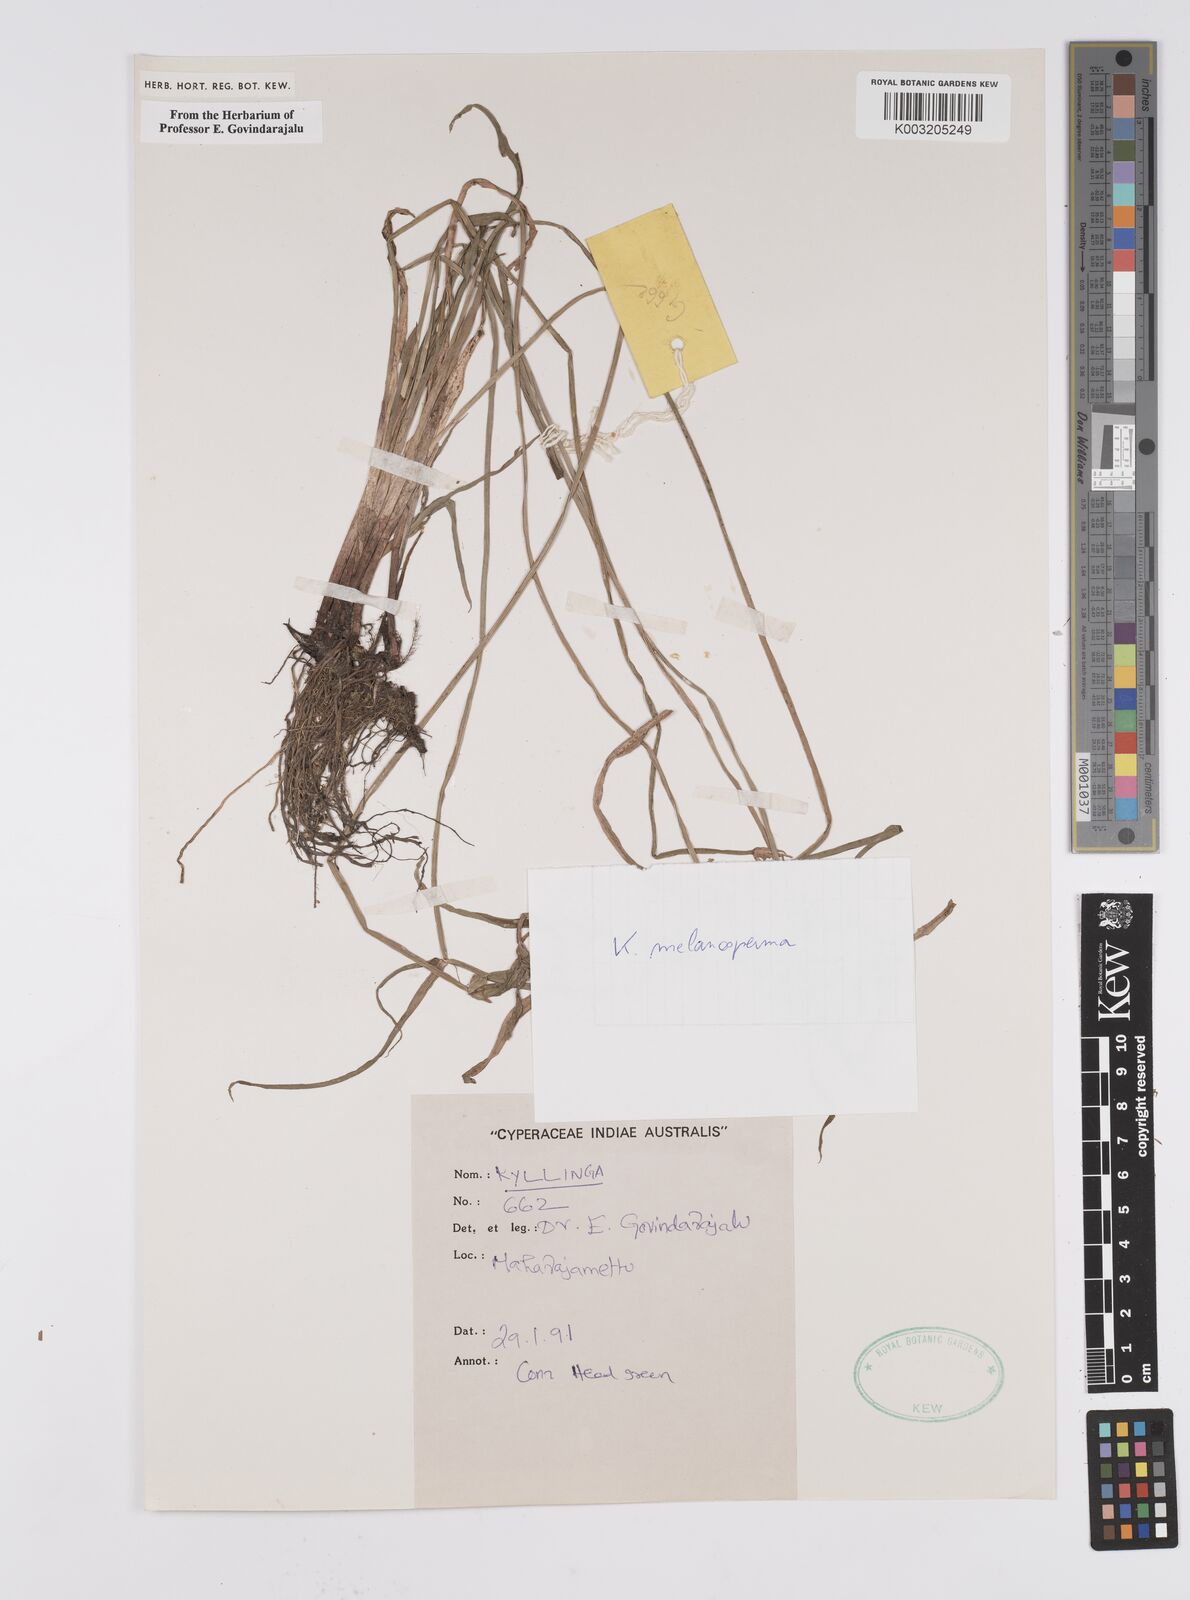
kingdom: Plantae
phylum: Tracheophyta
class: Liliopsida
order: Poales
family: Cyperaceae
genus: Cyperus
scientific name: Cyperus melanospermus
